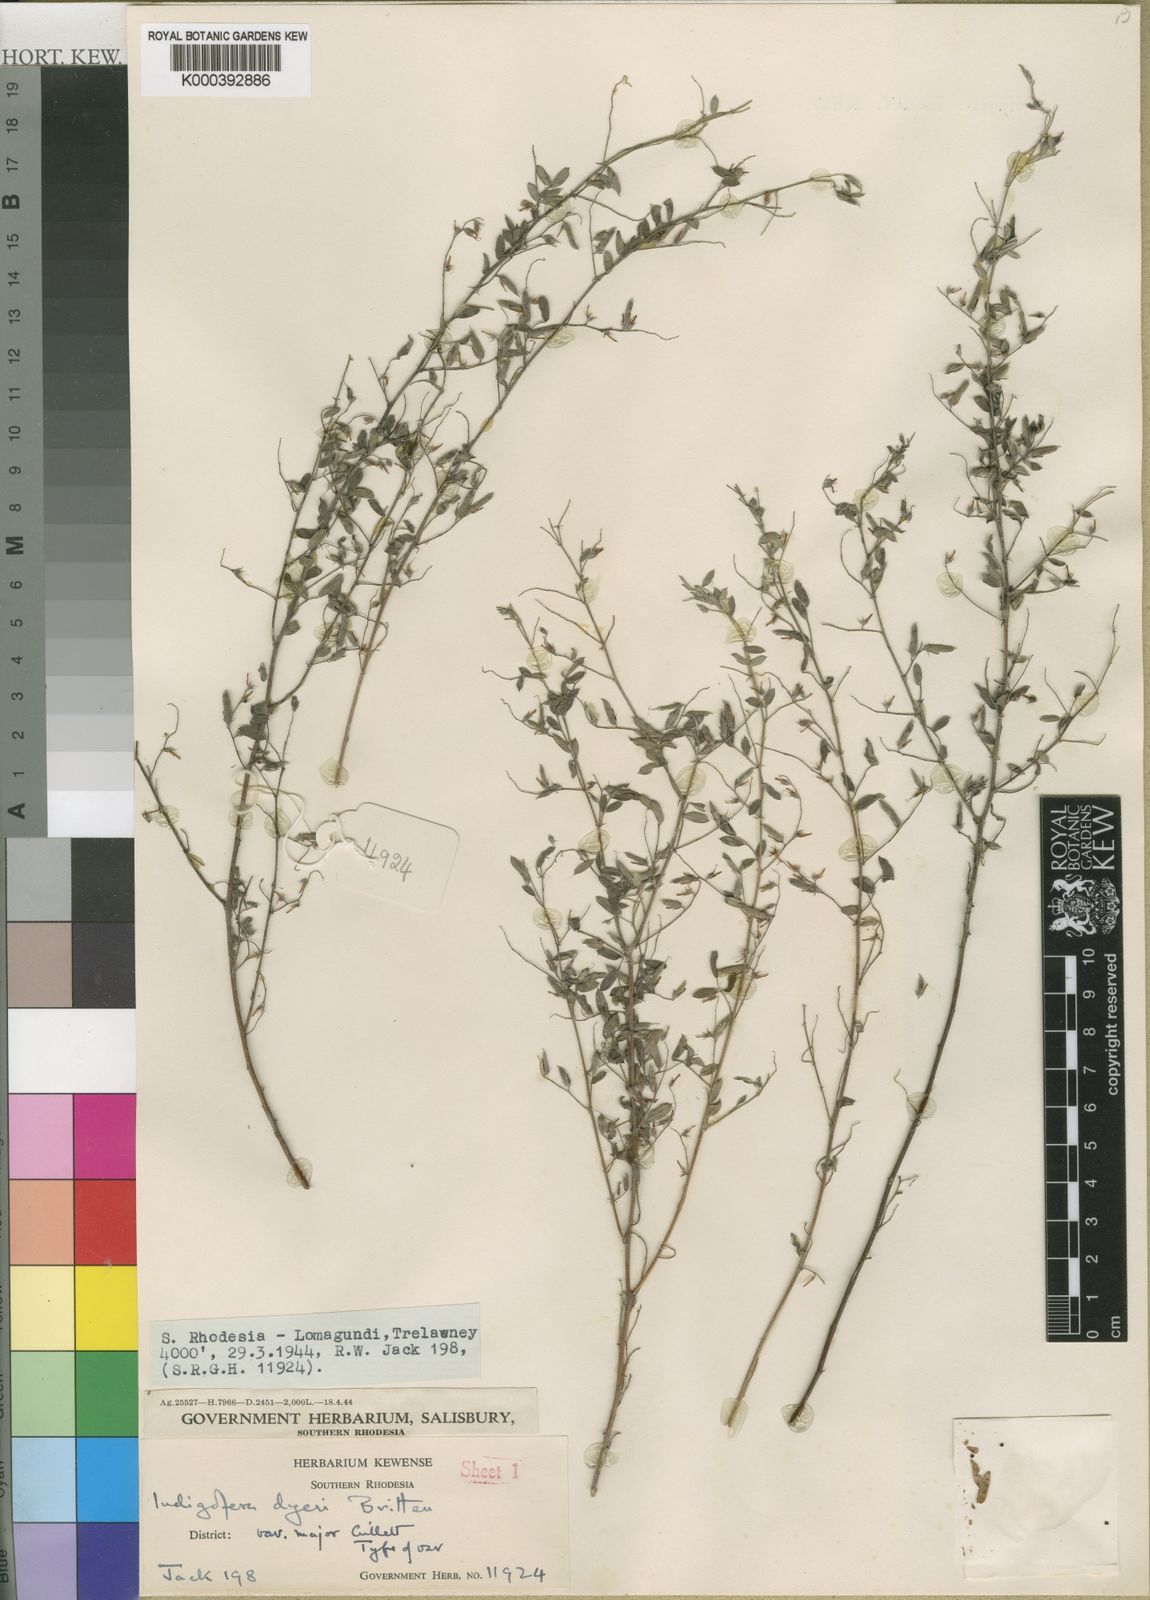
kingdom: Plantae
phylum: Tracheophyta
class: Magnoliopsida
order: Fabales
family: Fabaceae
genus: Indigofera
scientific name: Indigofera dyeri
